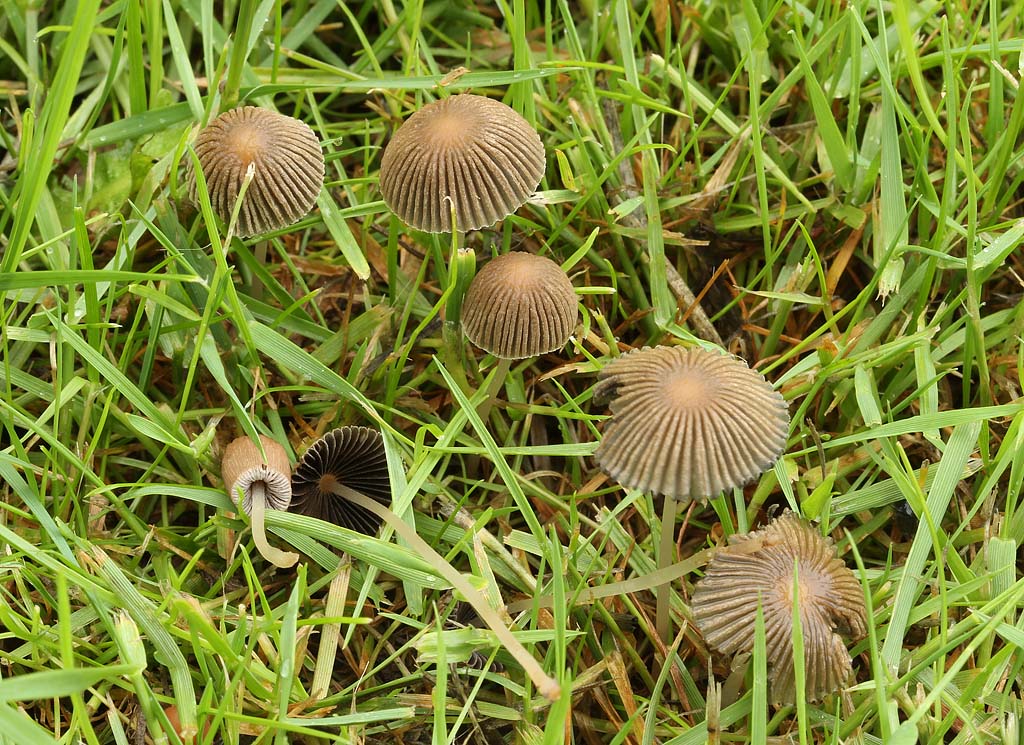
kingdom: Fungi
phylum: Basidiomycota
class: Agaricomycetes
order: Agaricales
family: Psathyrellaceae
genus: Parasola
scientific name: Parasola schroeteri
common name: bredsporet hjulhat
